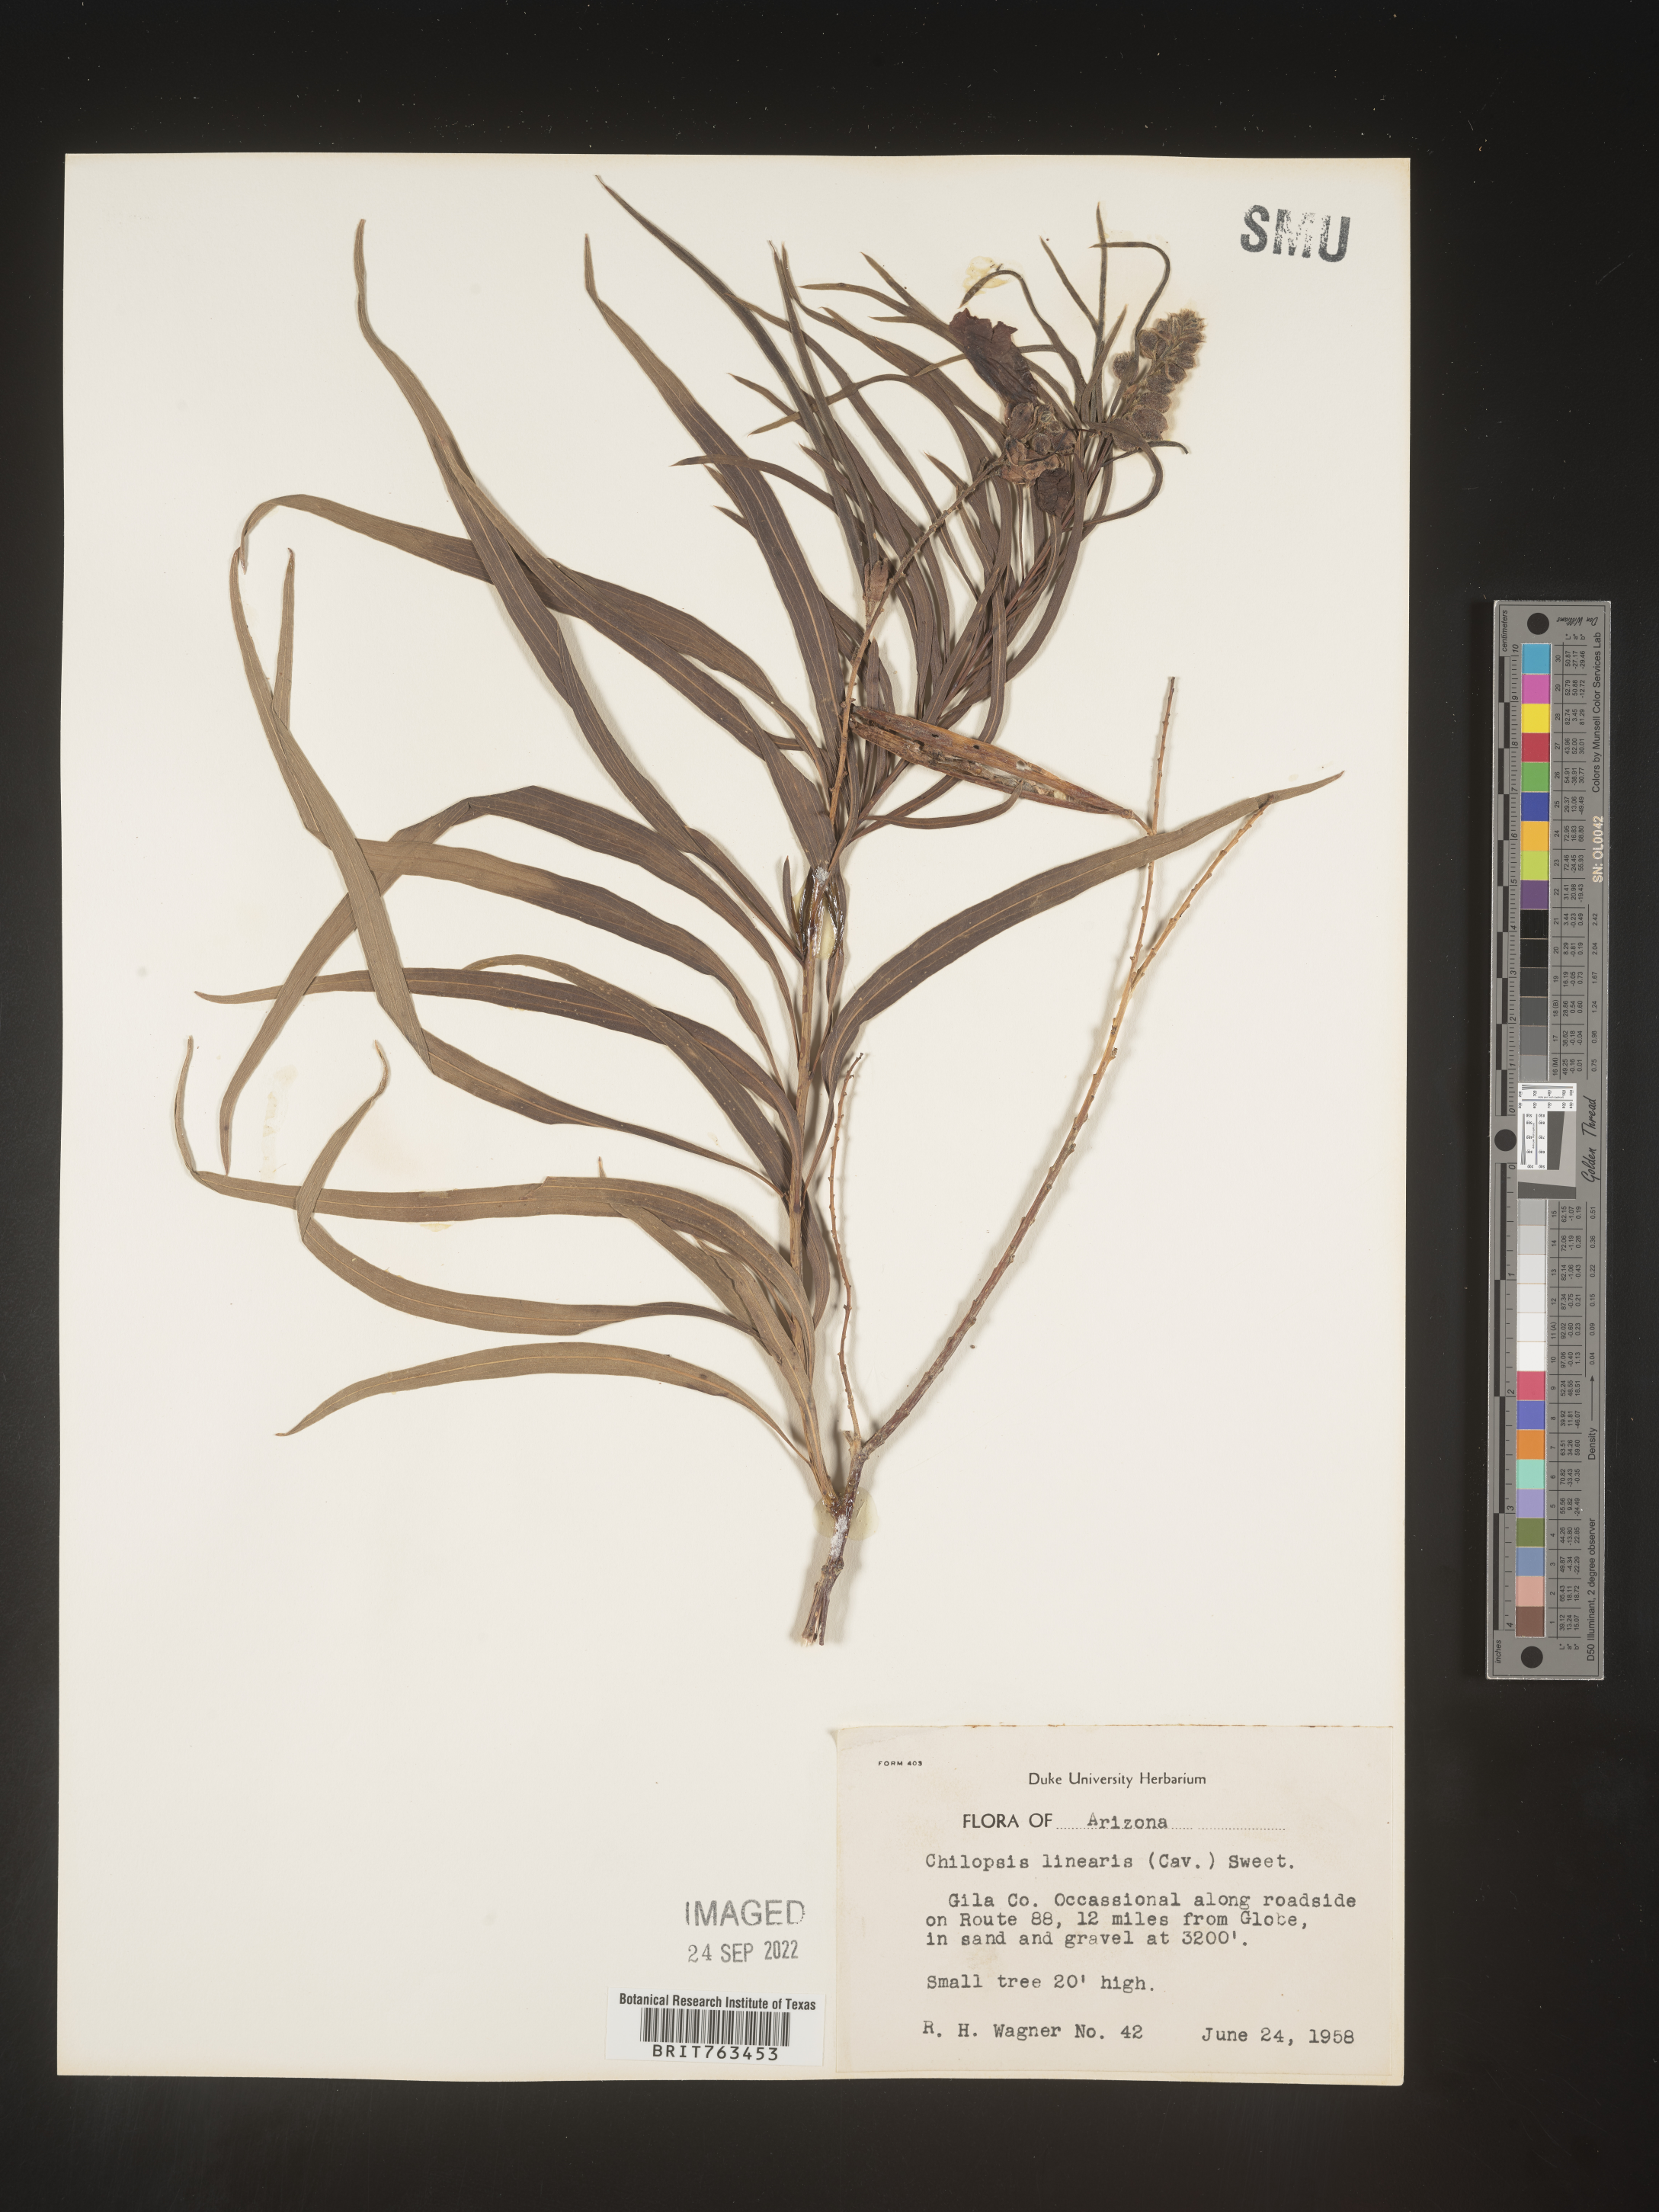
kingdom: Plantae
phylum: Tracheophyta
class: Magnoliopsida
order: Lamiales
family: Bignoniaceae
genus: Chilopsis
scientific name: Chilopsis linearis
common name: Desert-willow
